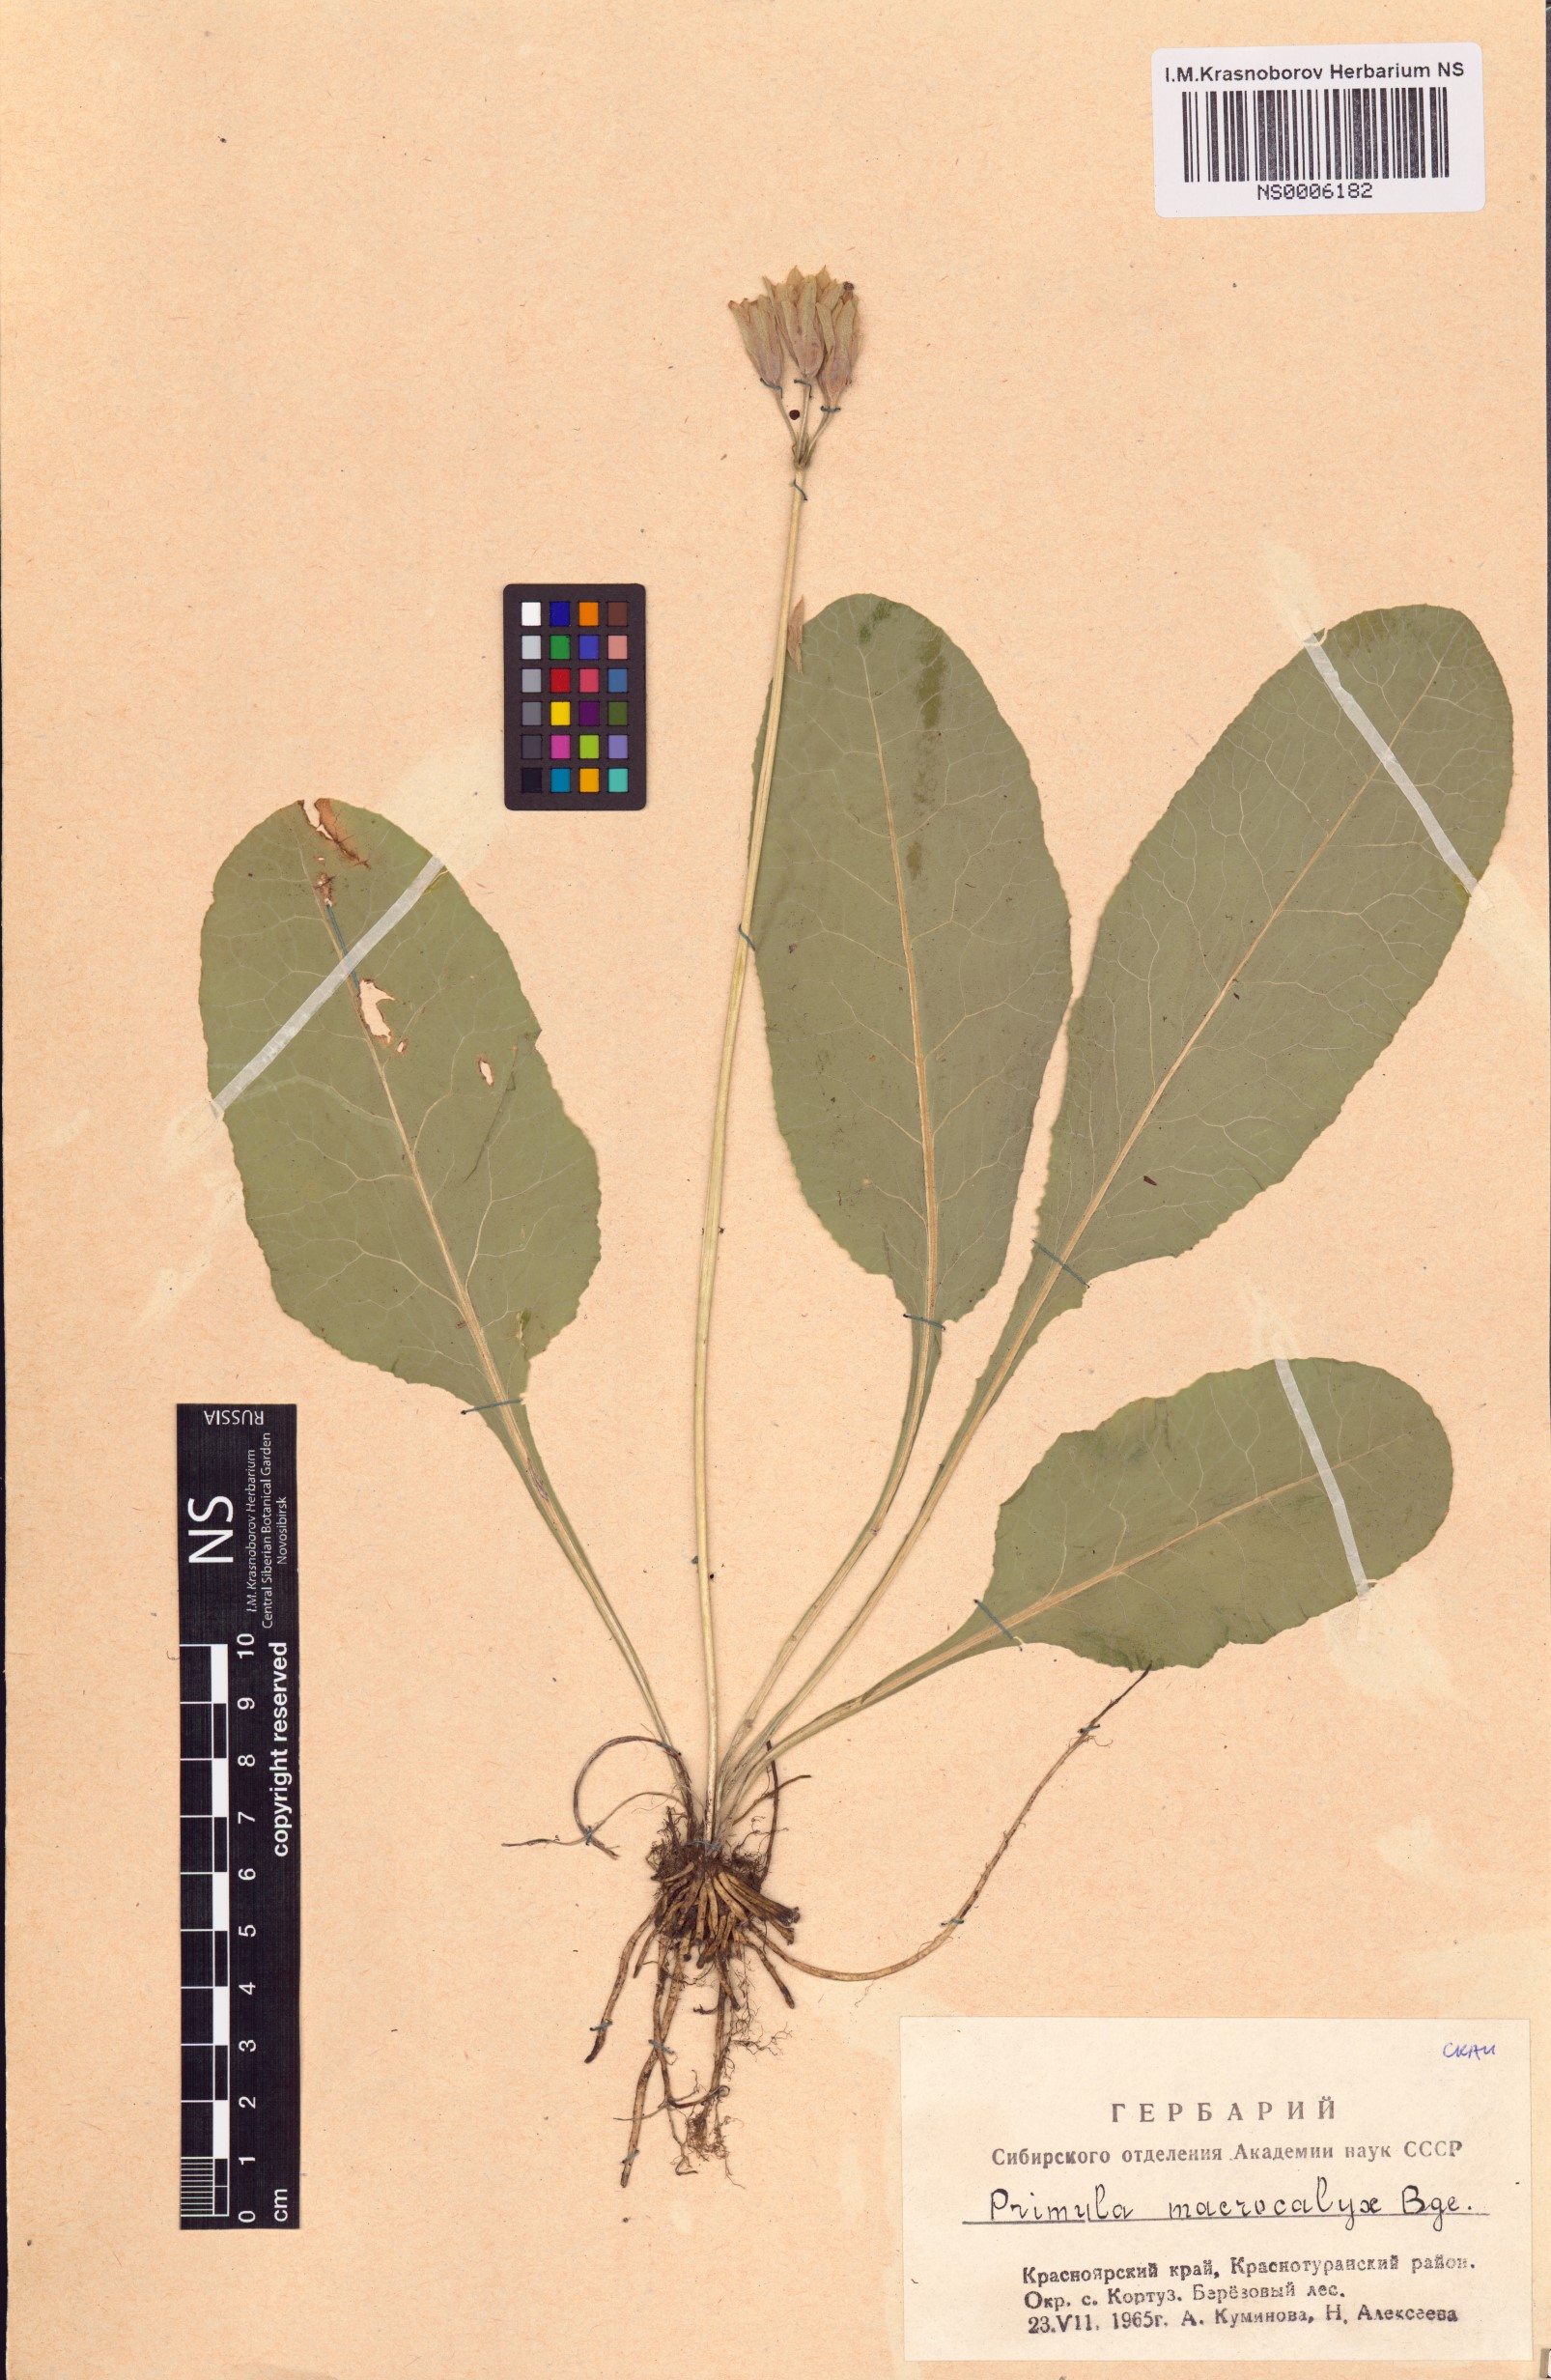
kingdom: Plantae
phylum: Tracheophyta
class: Magnoliopsida
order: Ericales
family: Primulaceae
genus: Primula
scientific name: Primula veris
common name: Cowslip
